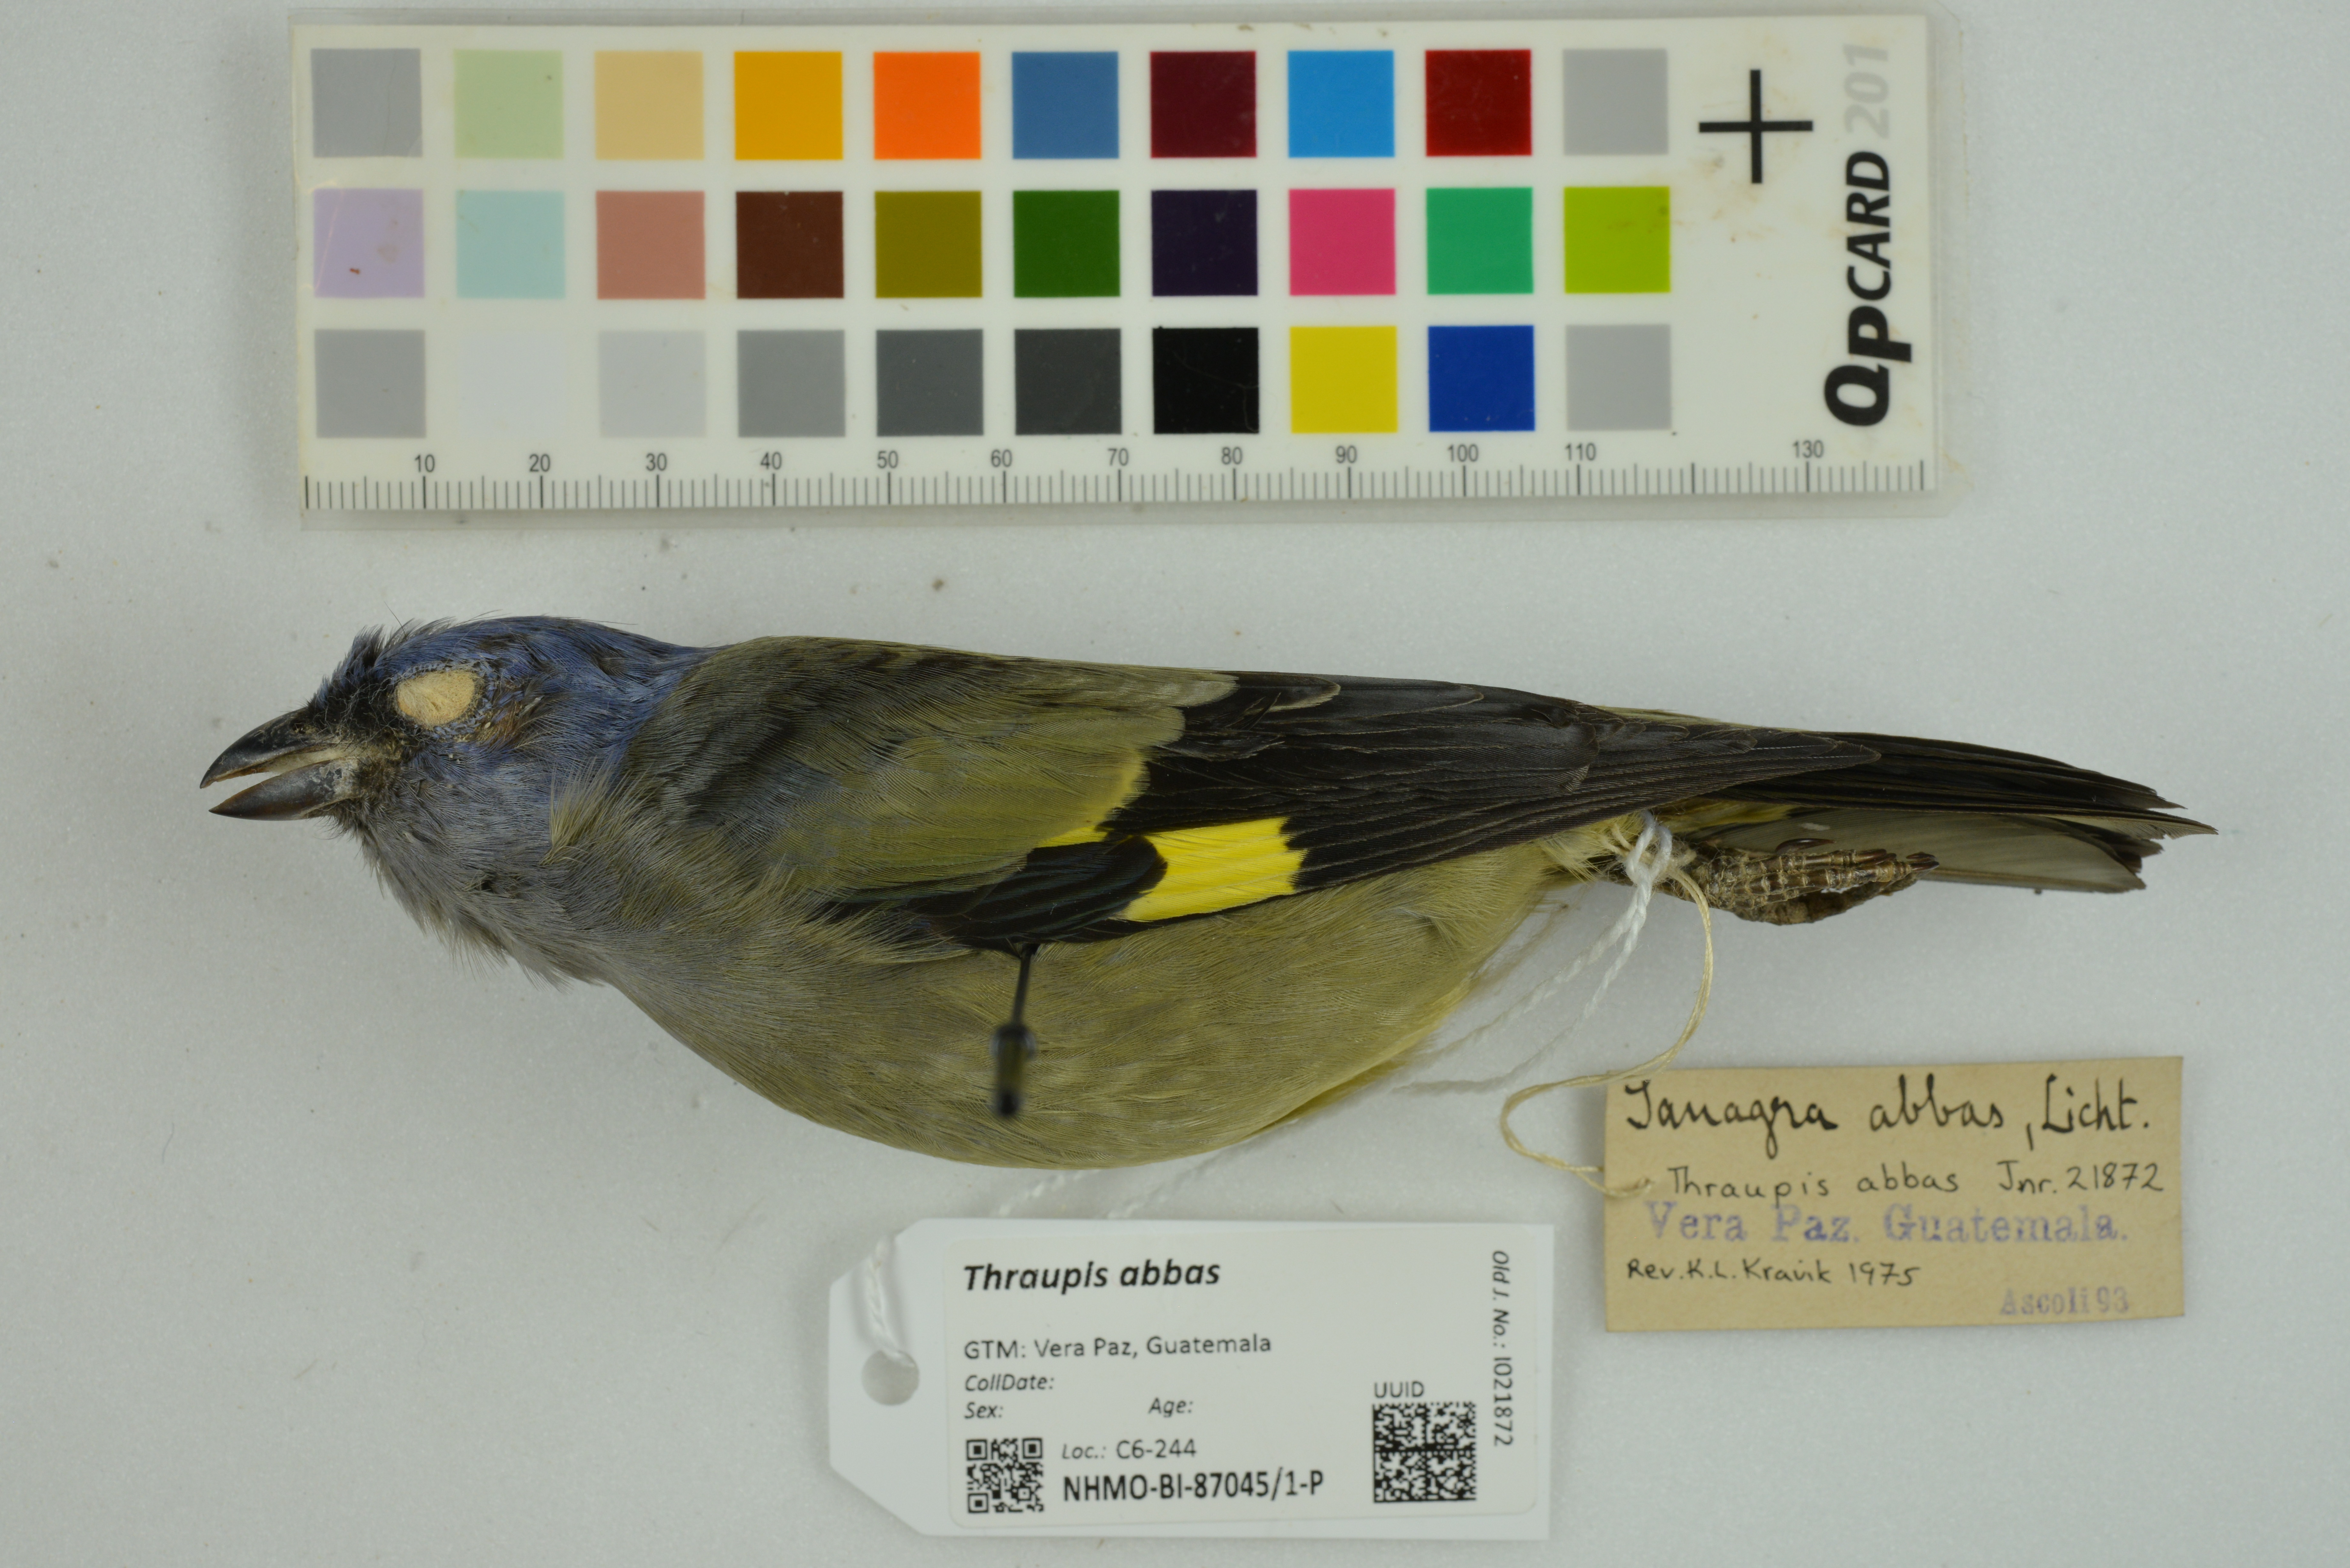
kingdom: Animalia
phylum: Chordata
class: Aves
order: Passeriformes
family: Thraupidae
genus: Thraupis
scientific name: Thraupis abbas
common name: Yellow-winged tanager
